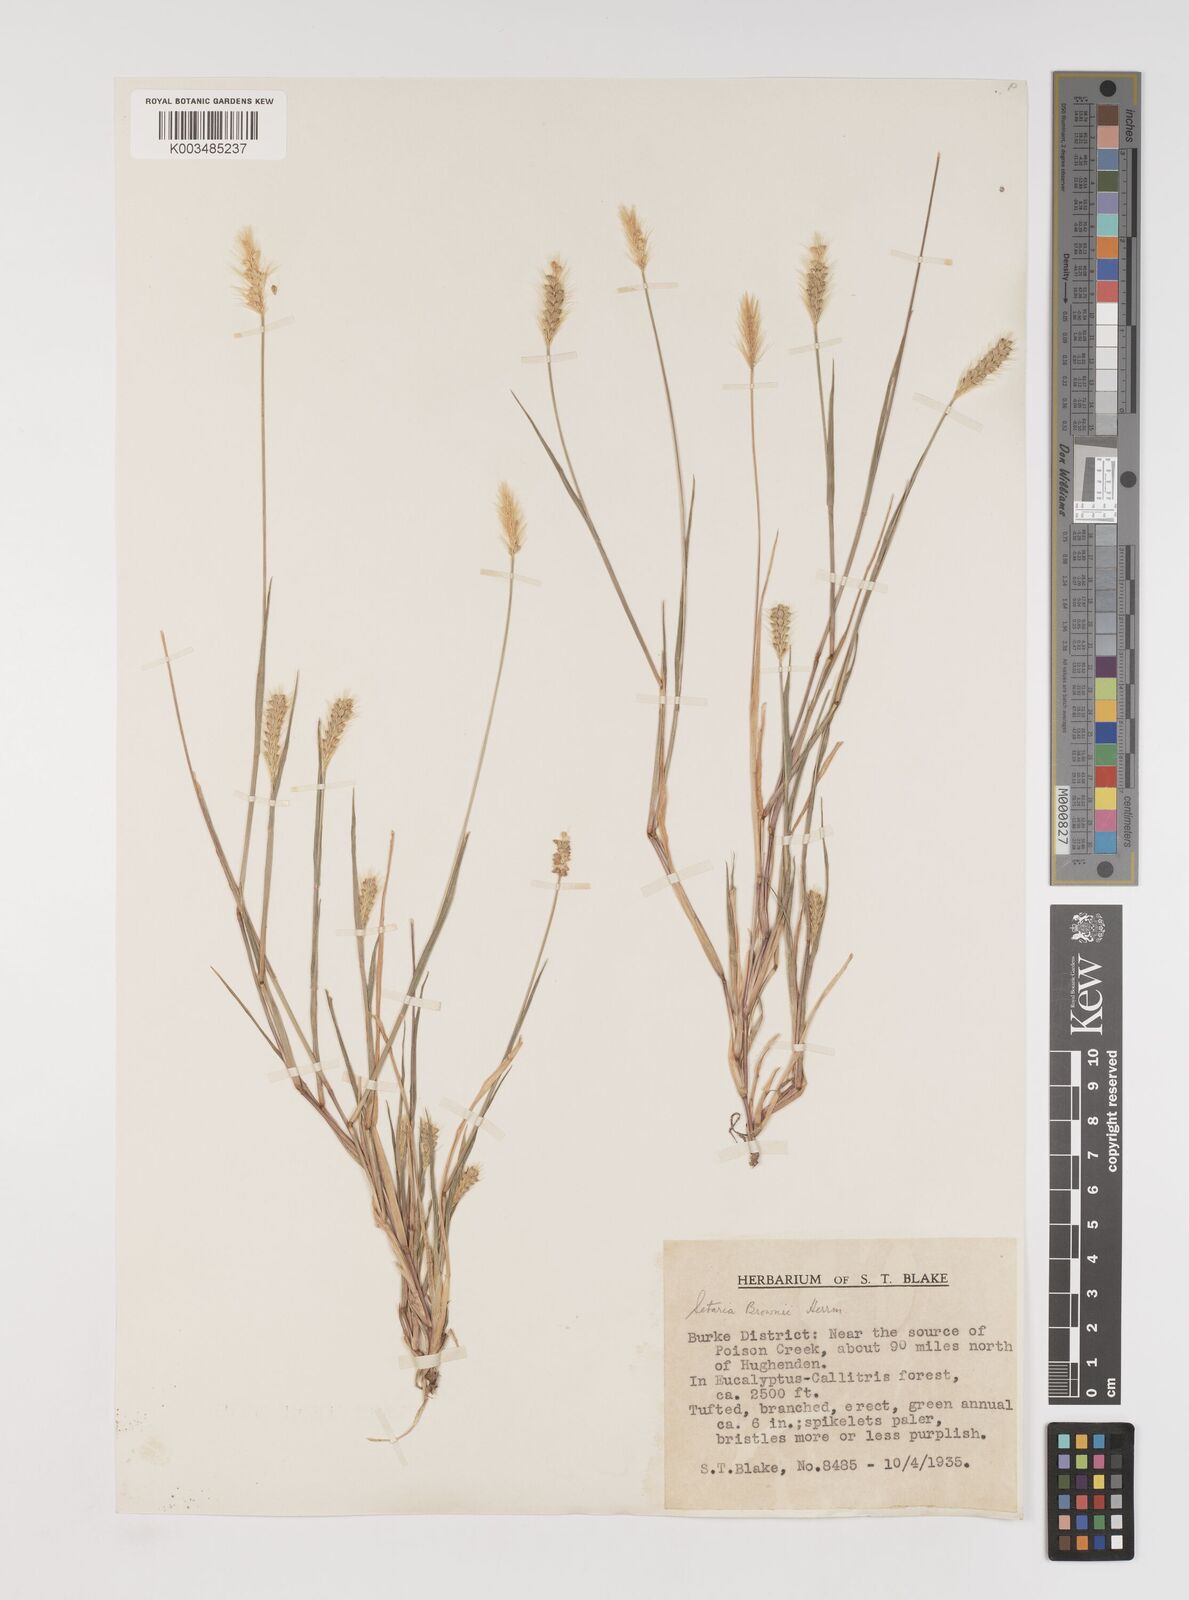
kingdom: Plantae
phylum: Tracheophyta
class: Liliopsida
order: Poales
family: Poaceae
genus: Setaria
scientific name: Setaria surgens
